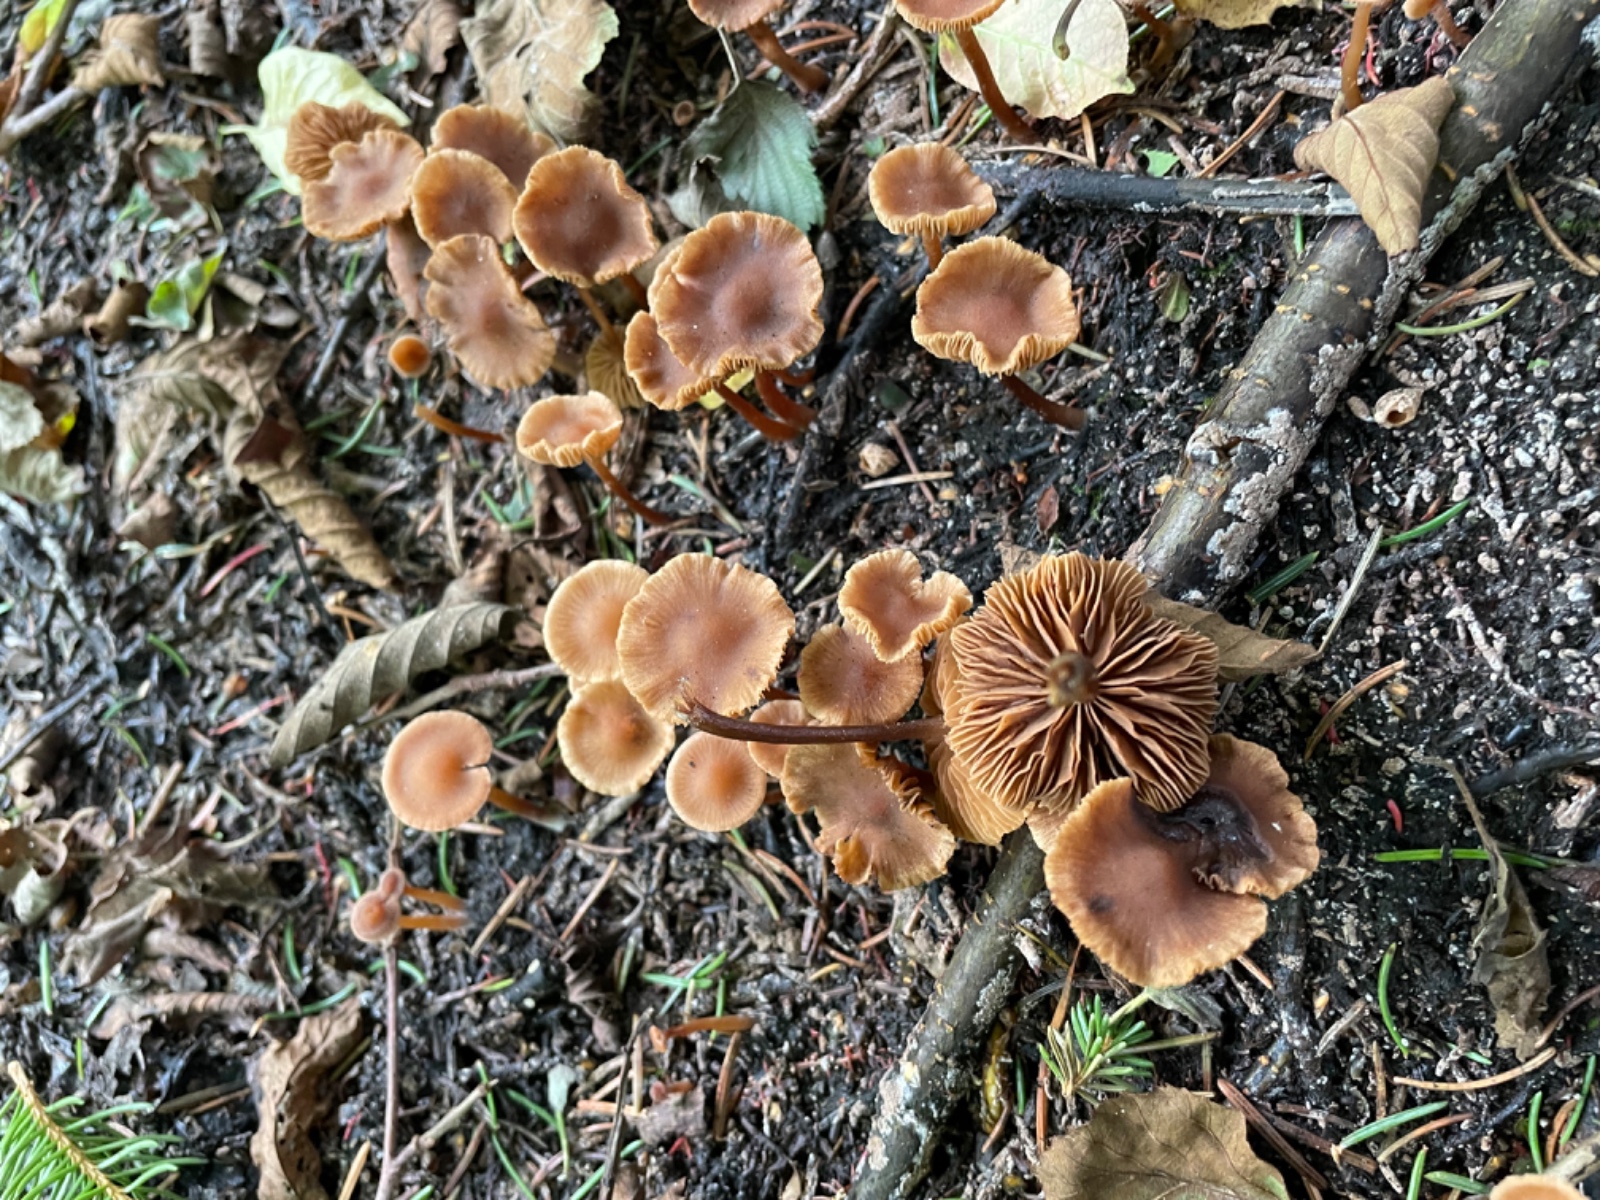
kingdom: Fungi
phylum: Basidiomycota
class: Agaricomycetes
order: Agaricales
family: Hymenogastraceae
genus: Naucoria
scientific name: Naucoria scolecina
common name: mørk elle-knaphat
